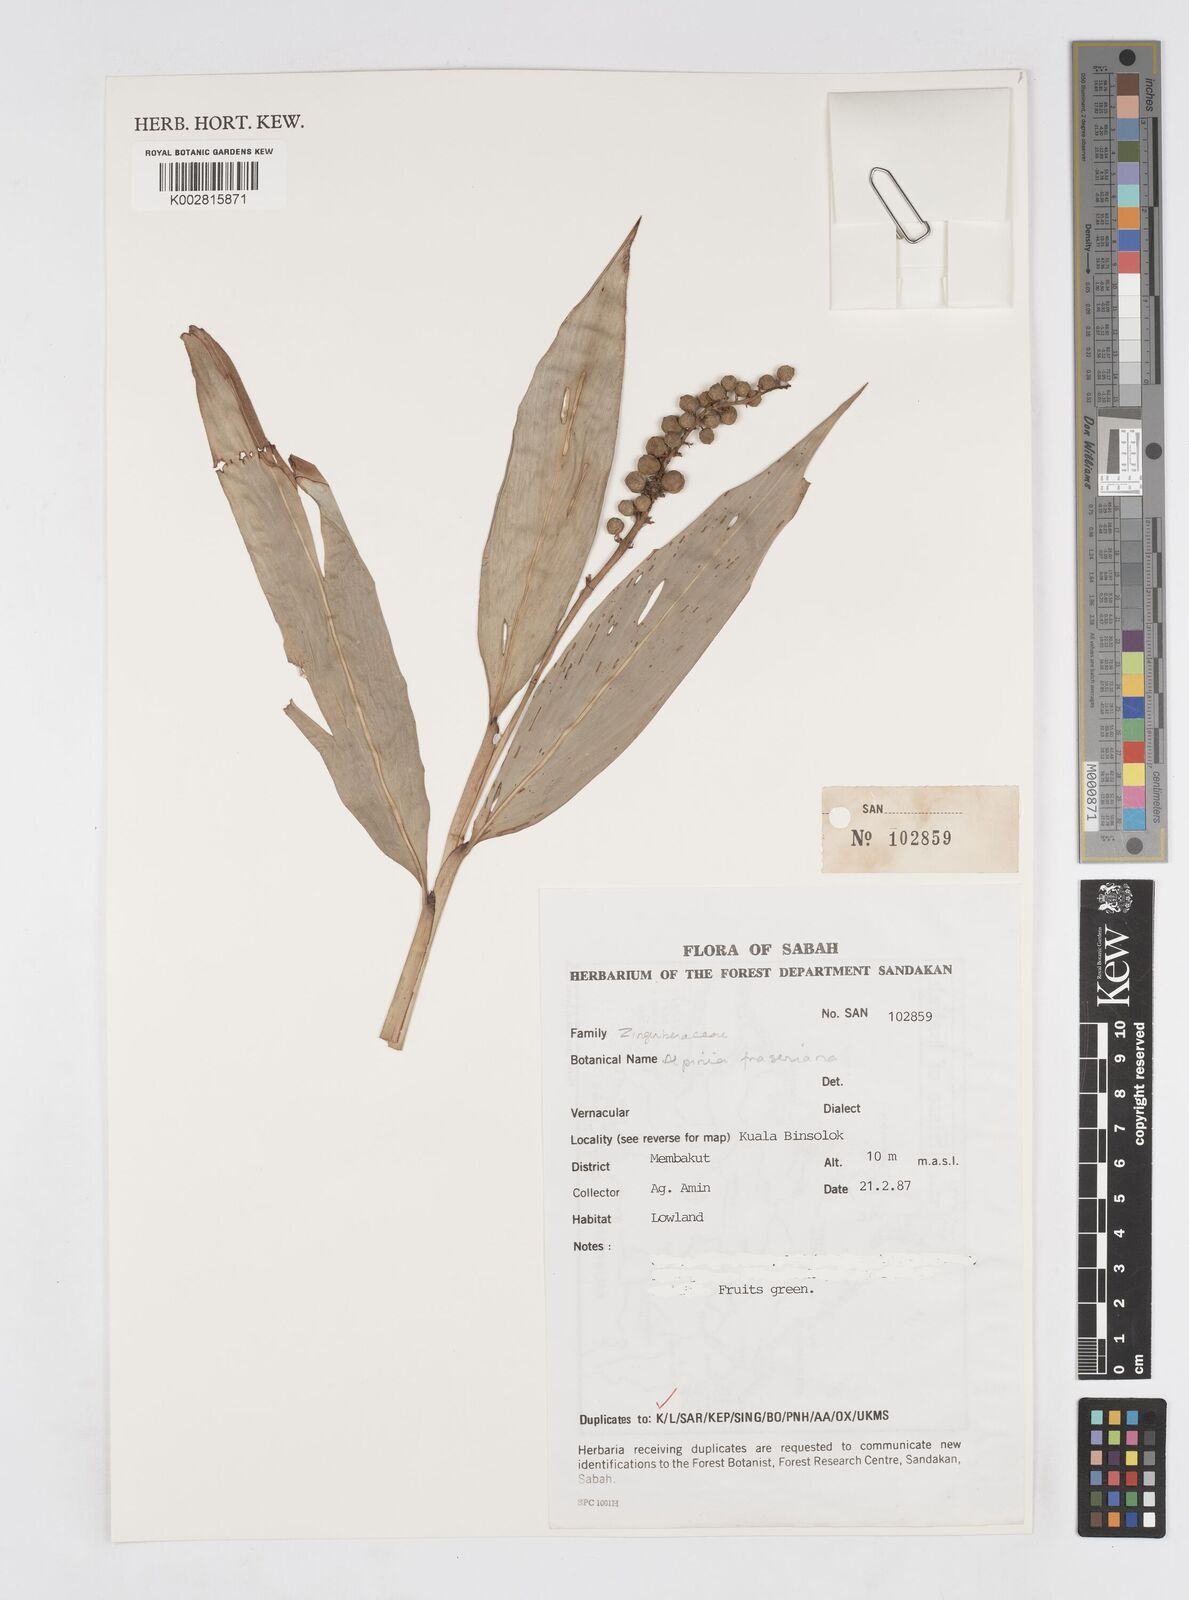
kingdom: Plantae
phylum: Tracheophyta
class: Liliopsida
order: Zingiberales
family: Zingiberaceae
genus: Alpinia
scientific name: Alpinia aquatica
